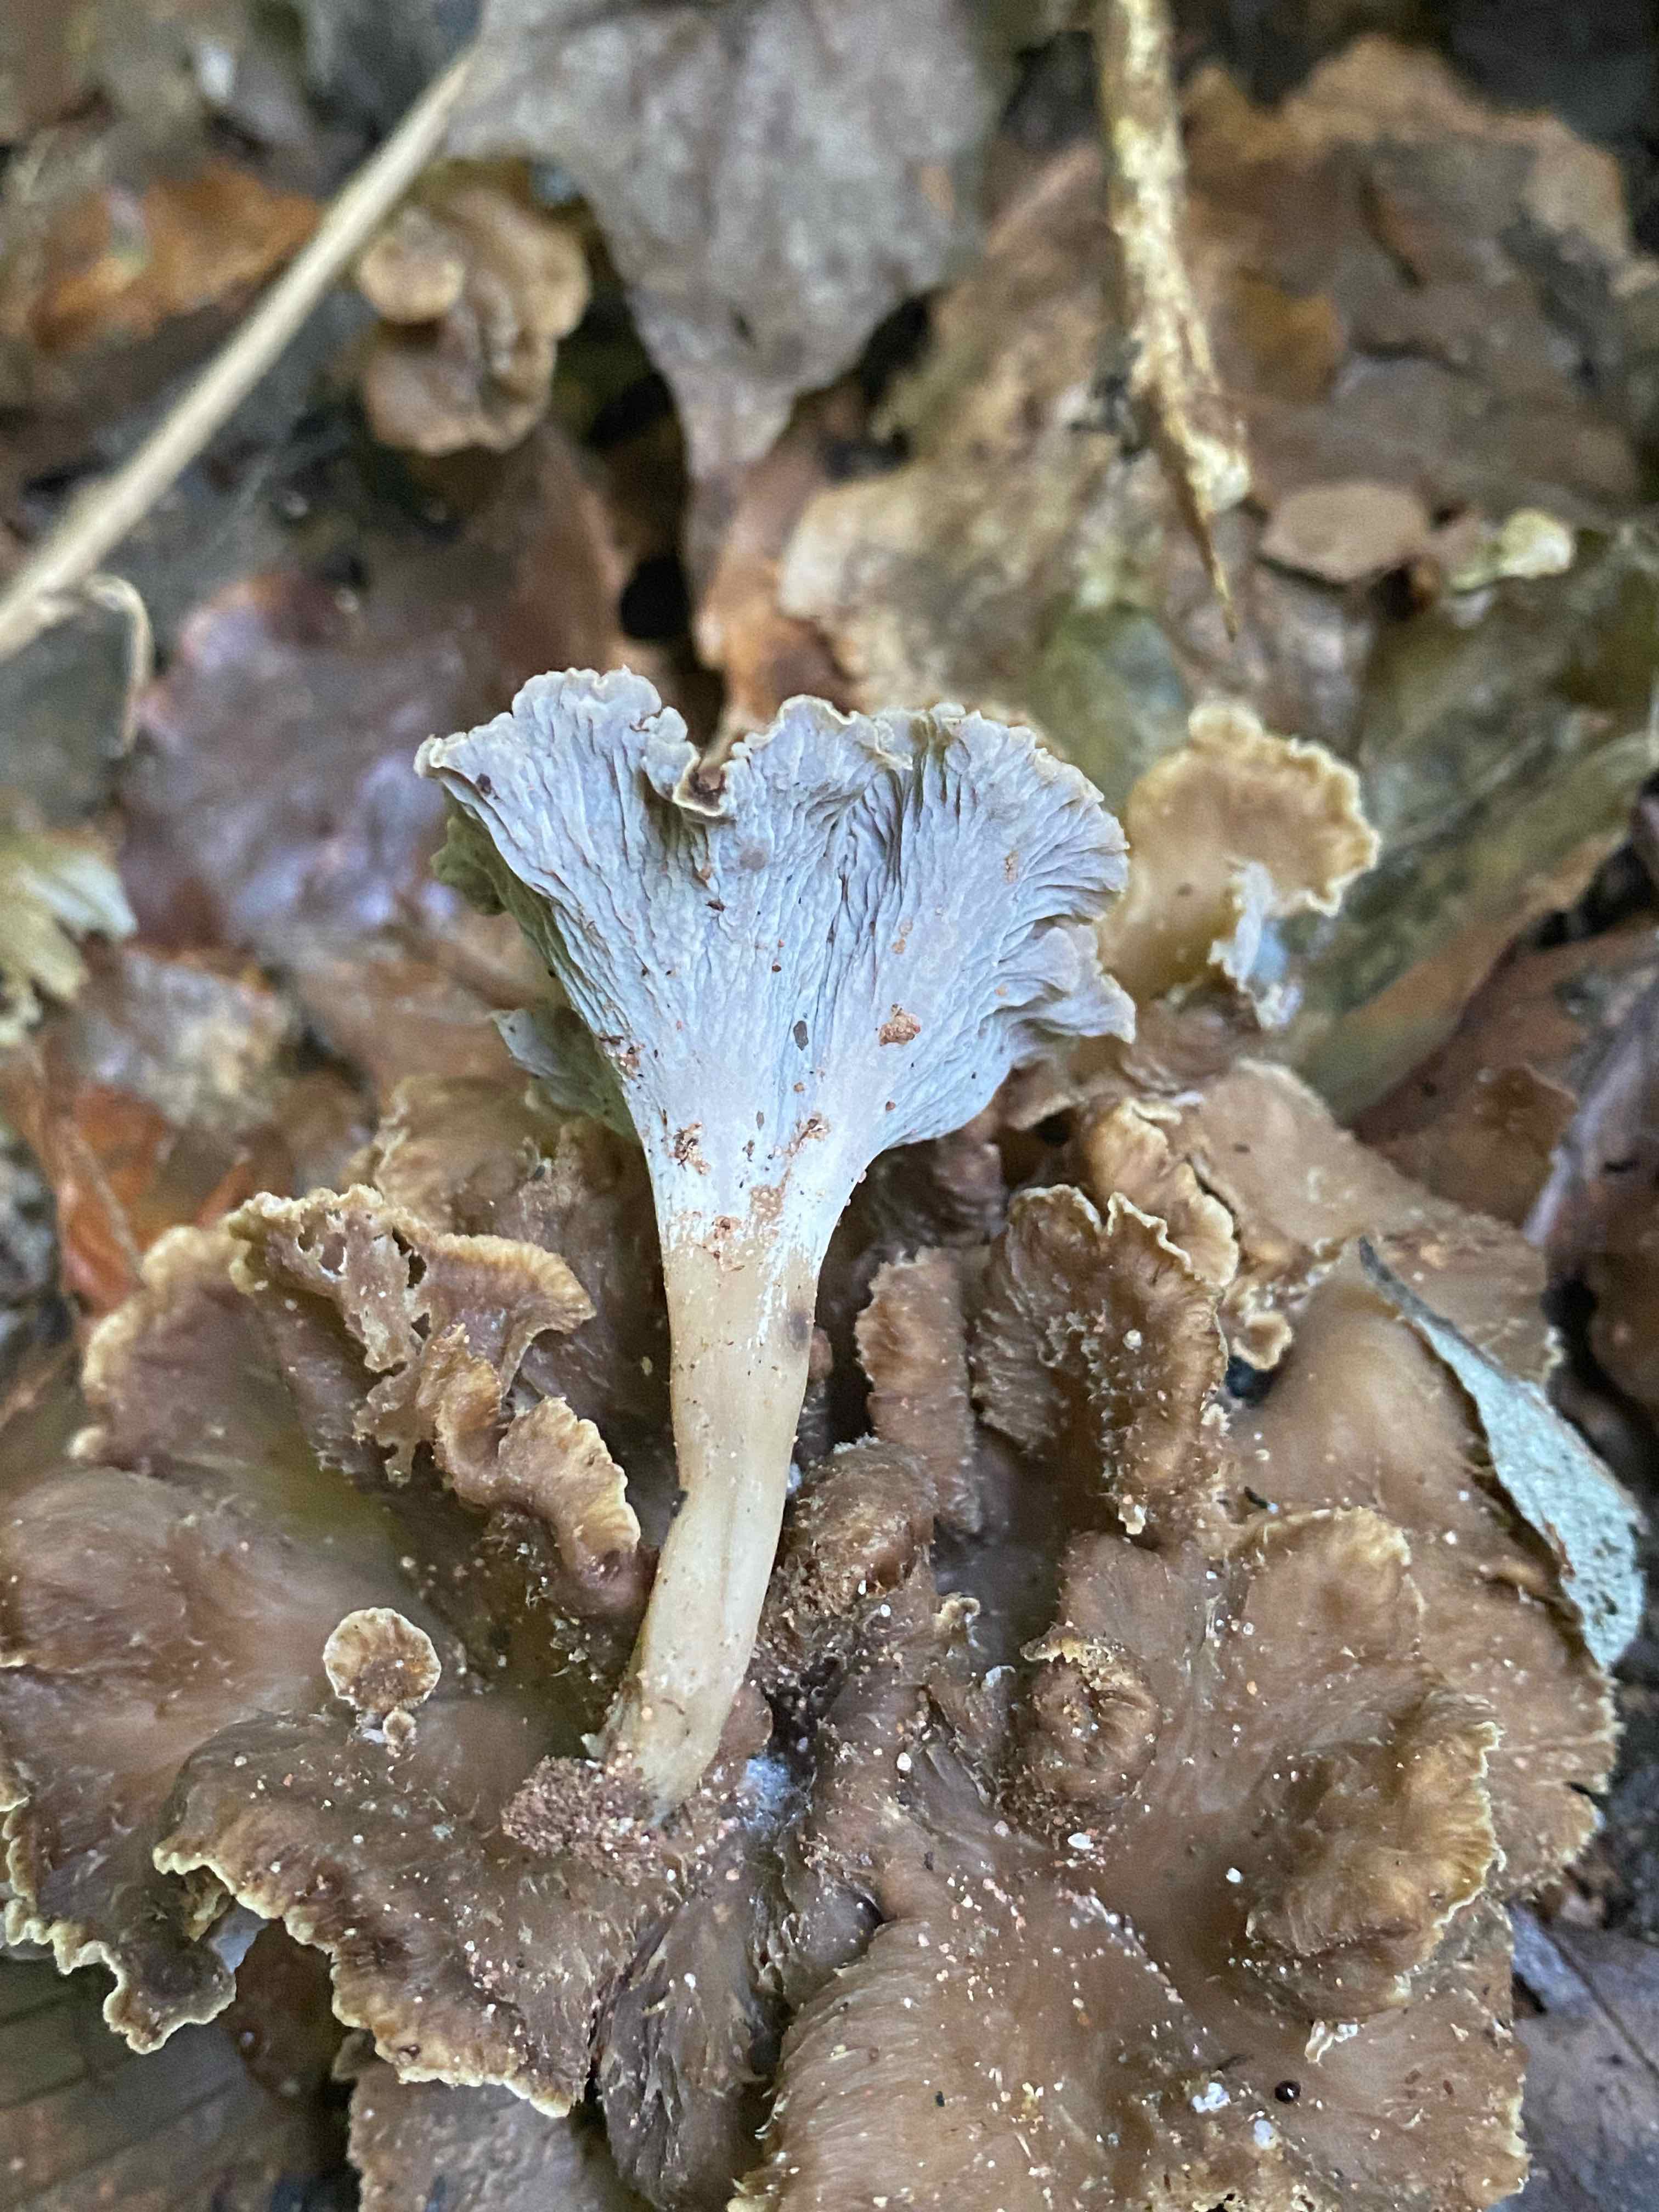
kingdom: Fungi
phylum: Basidiomycota
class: Agaricomycetes
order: Cantharellales
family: Hydnaceae
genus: Craterellus
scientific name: Craterellus undulatus
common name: liden kantarel
